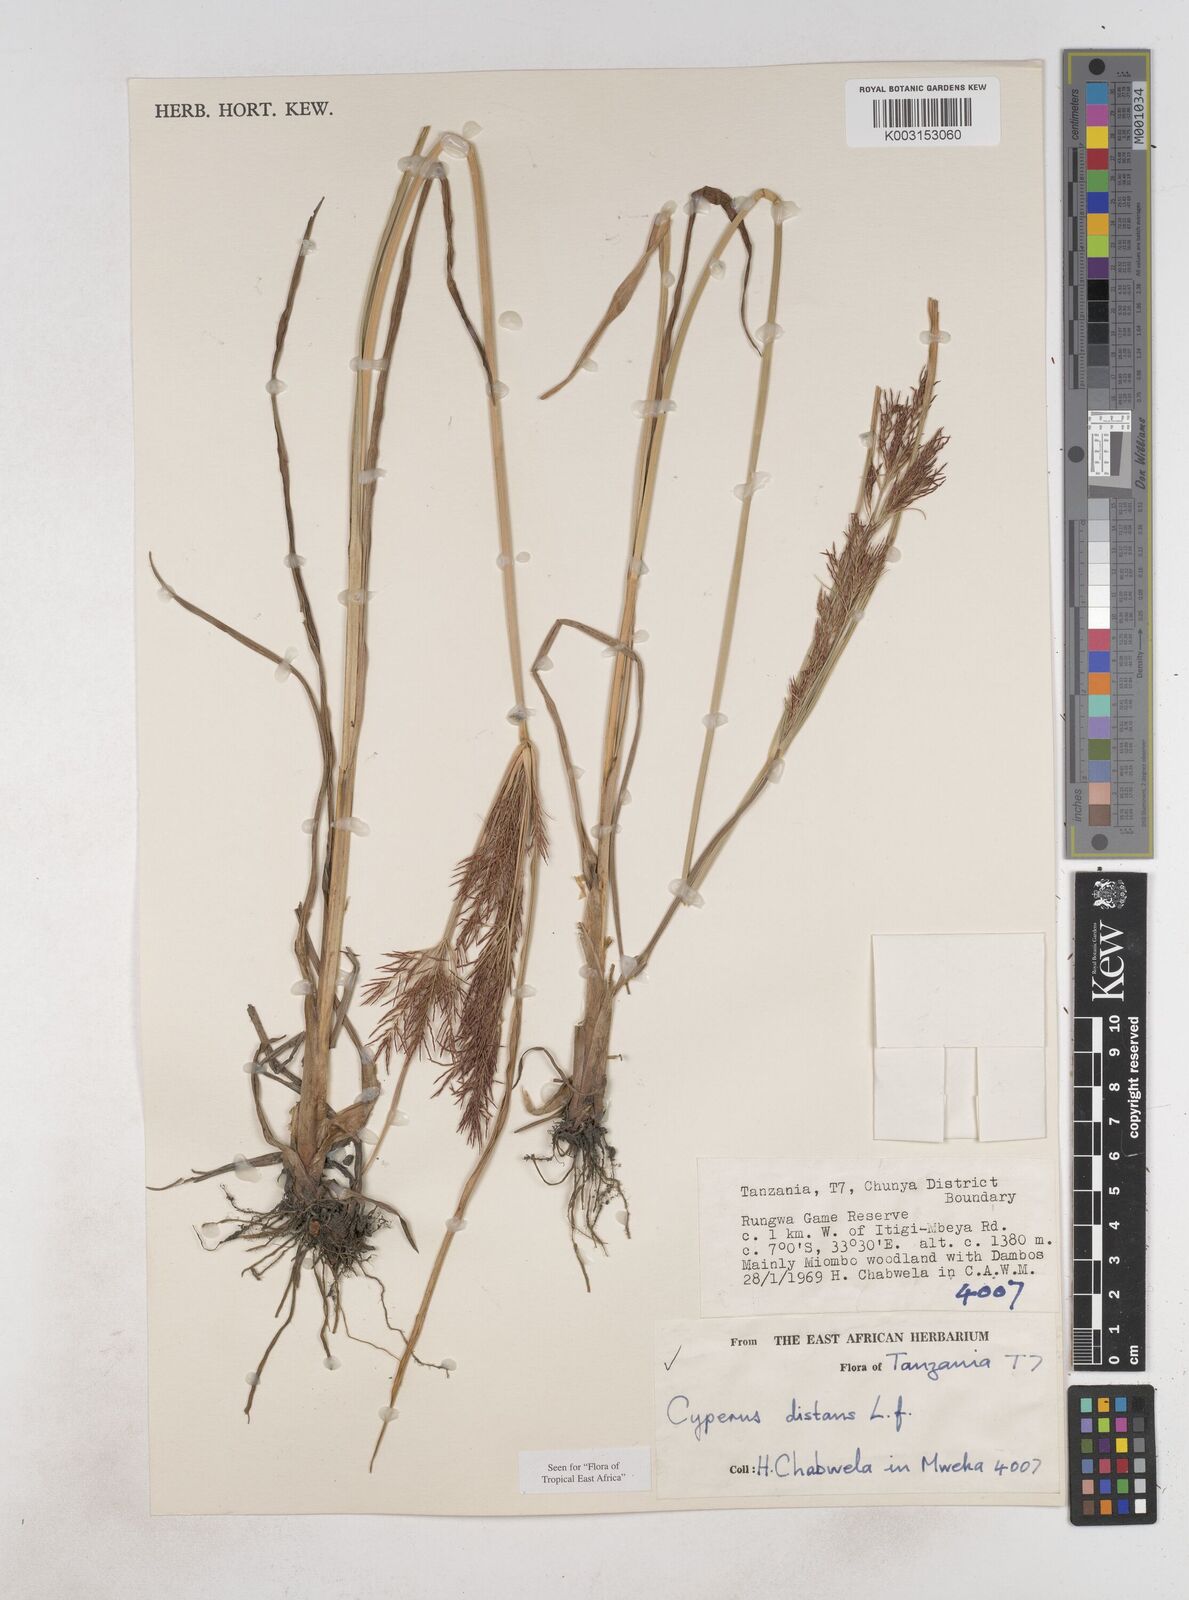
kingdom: Plantae
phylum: Tracheophyta
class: Liliopsida
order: Poales
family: Cyperaceae
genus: Cyperus
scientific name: Cyperus distans
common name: Slender cyperus
